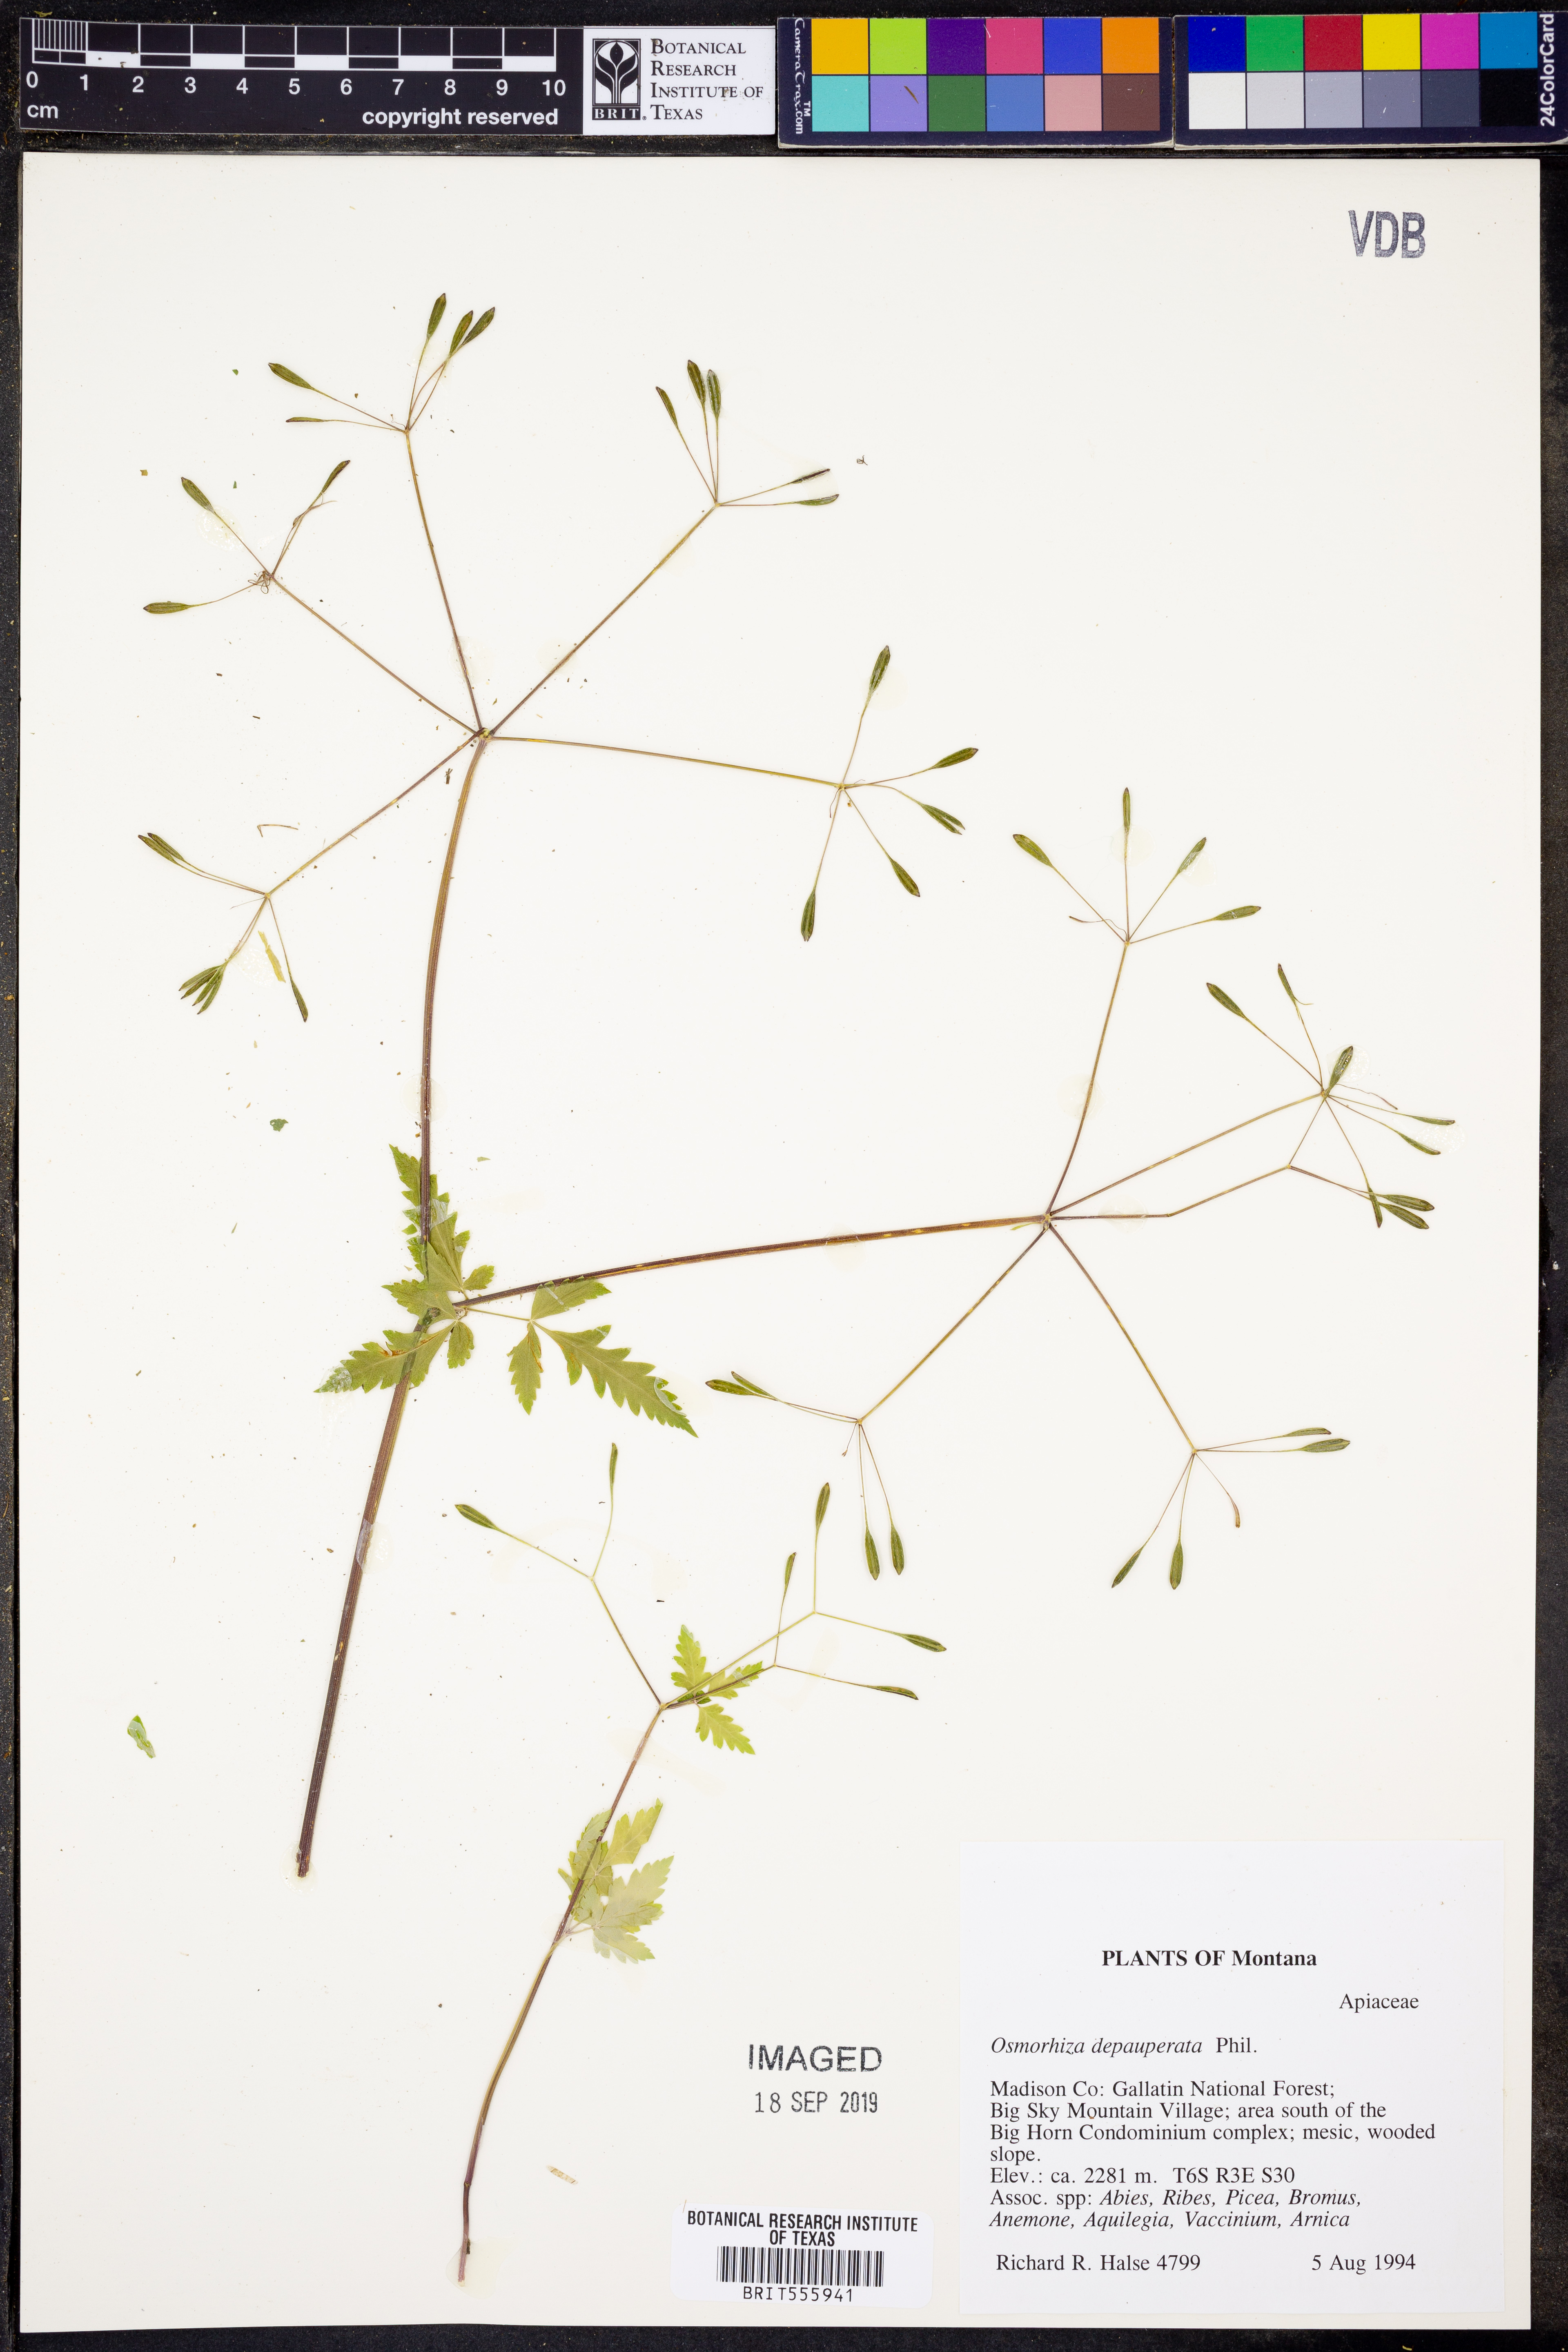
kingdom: Plantae
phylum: Tracheophyta
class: Magnoliopsida
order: Apiales
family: Apiaceae
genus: Osmorhiza
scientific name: Osmorhiza depauperata
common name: Blunt sweet cicely
